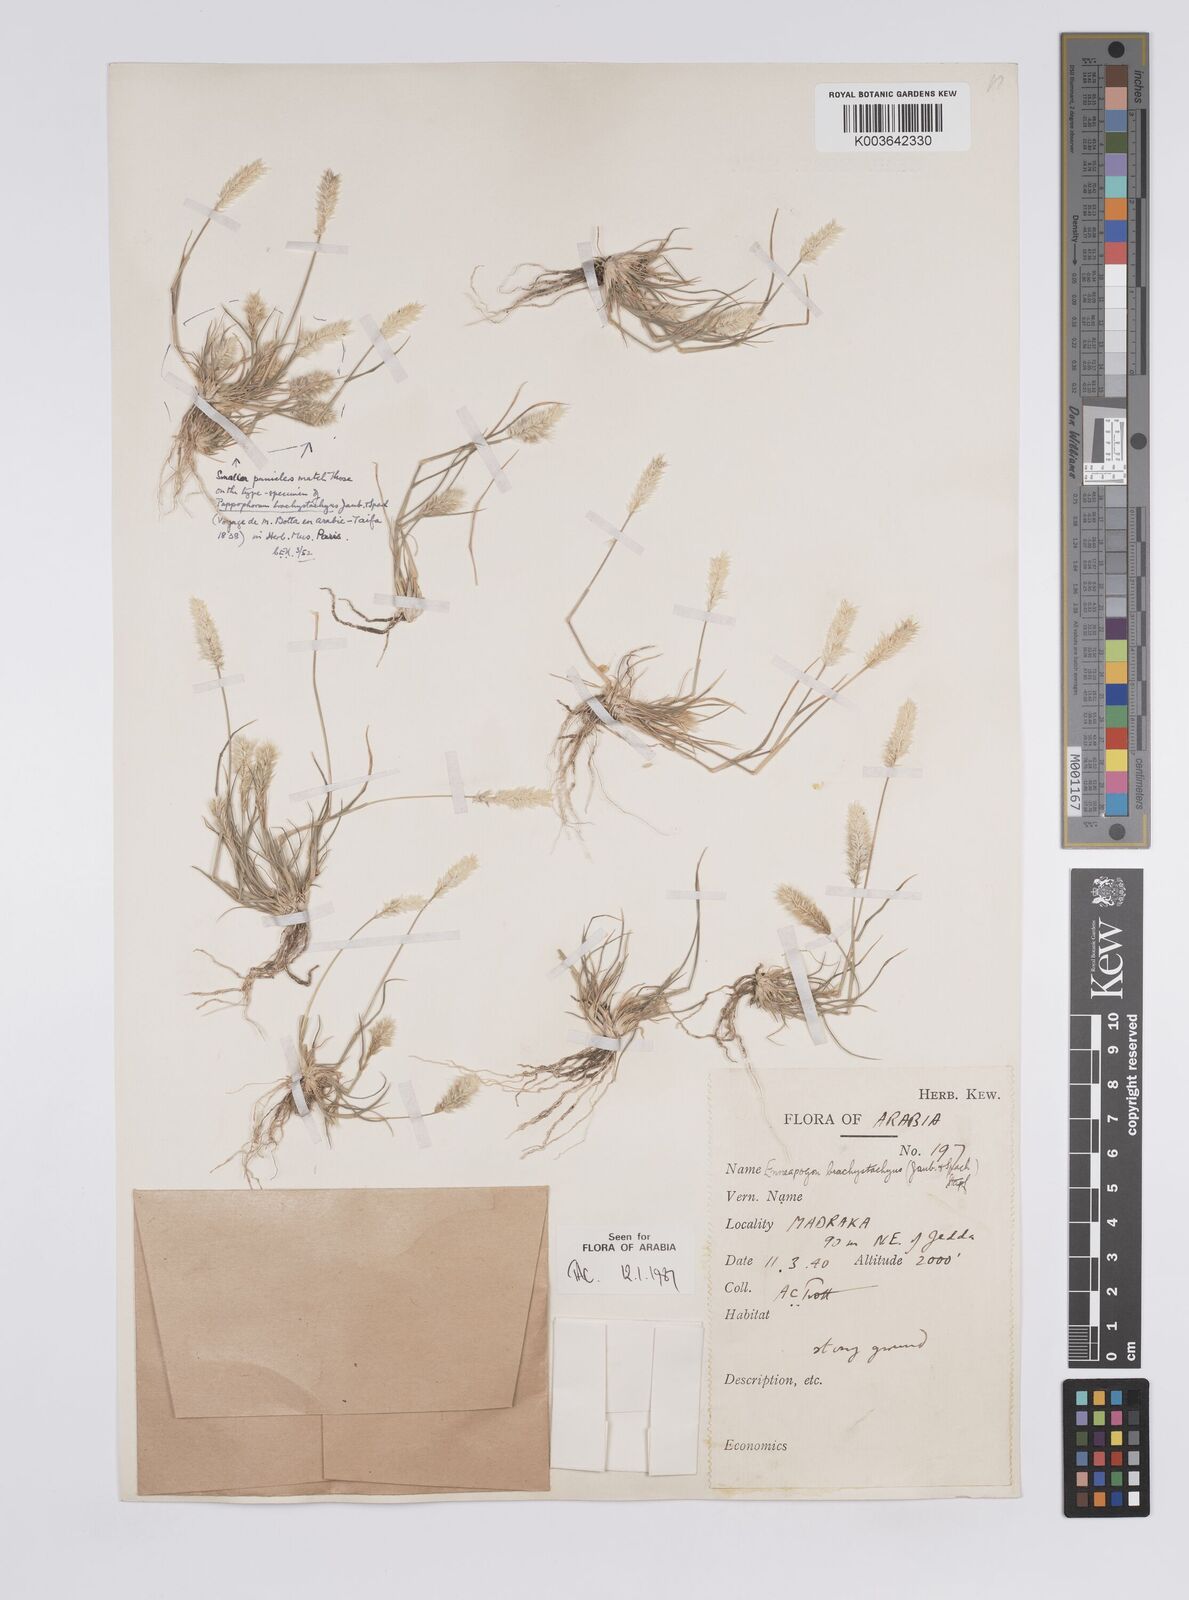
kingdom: Plantae
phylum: Tracheophyta
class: Liliopsida
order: Poales
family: Poaceae
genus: Enneapogon
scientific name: Enneapogon desvauxii
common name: Feather pappus grass
